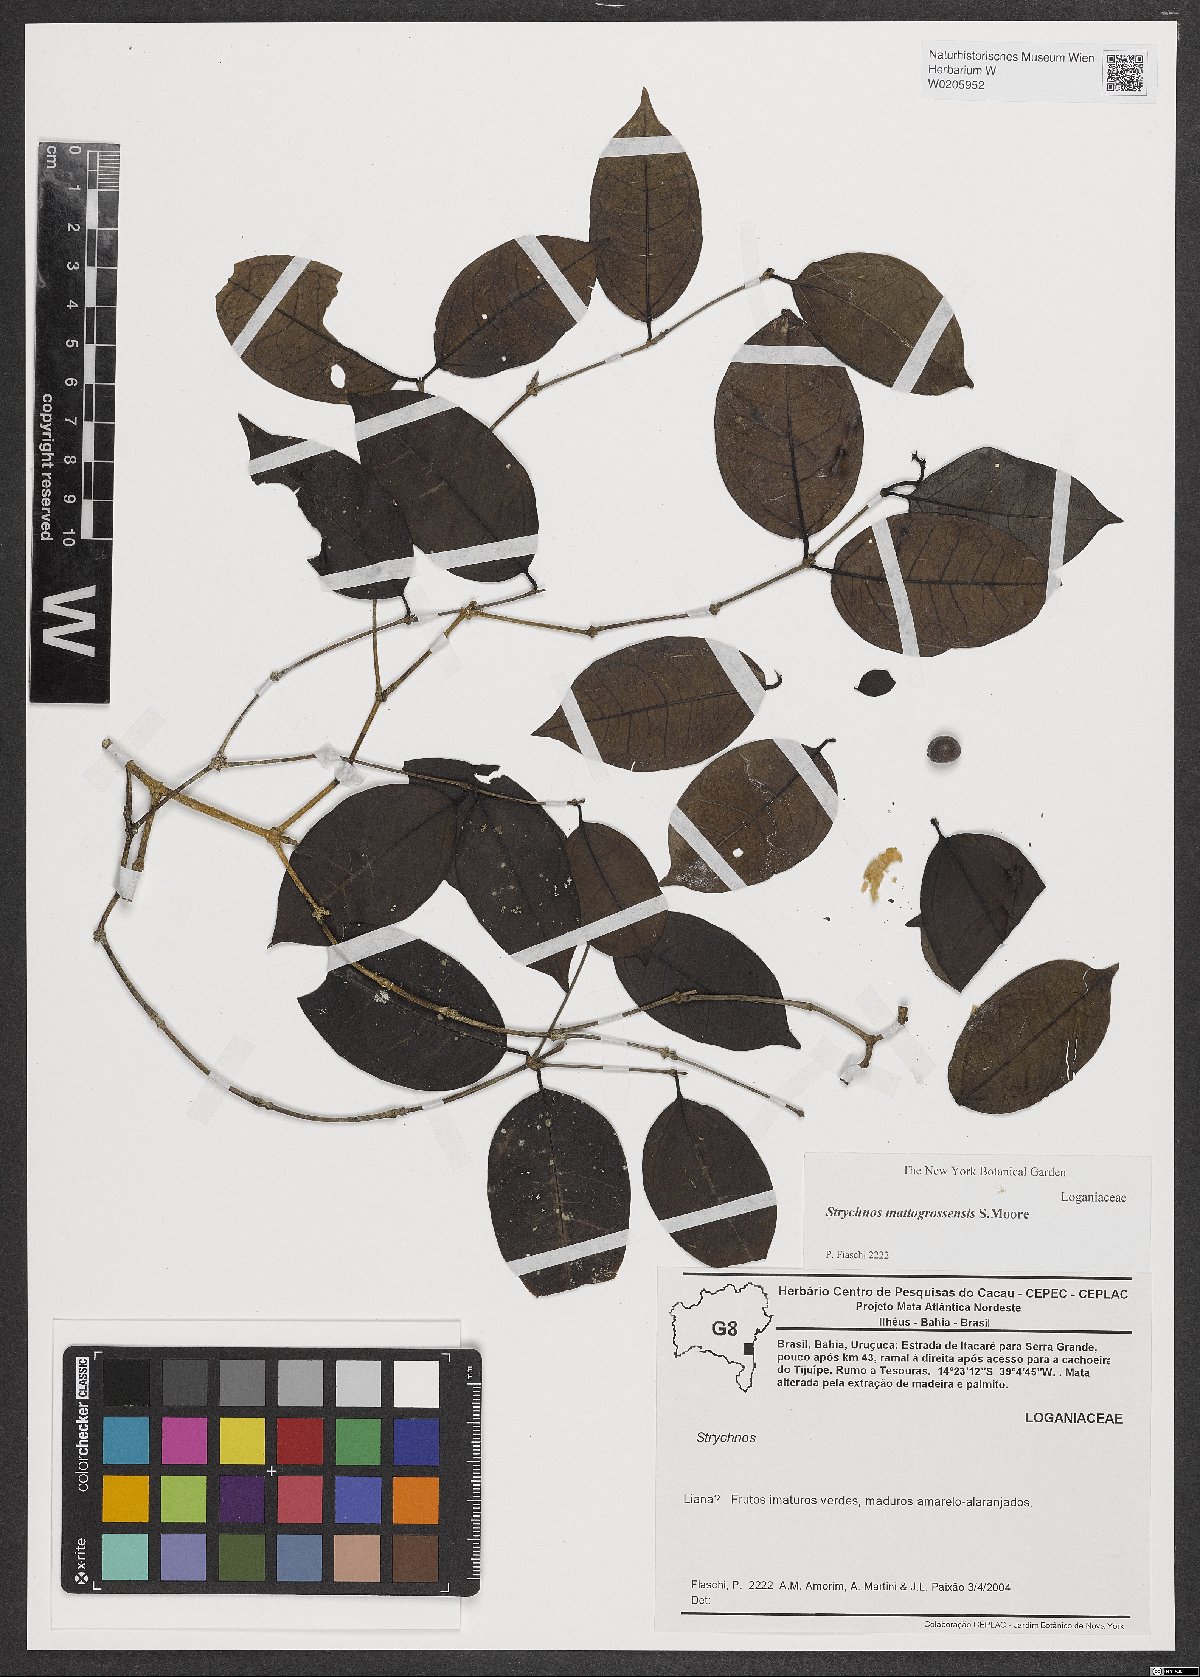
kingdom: Plantae
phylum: Tracheophyta
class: Magnoliopsida
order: Gentianales
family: Loganiaceae
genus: Strychnos
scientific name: Strychnos mattogrossensis
